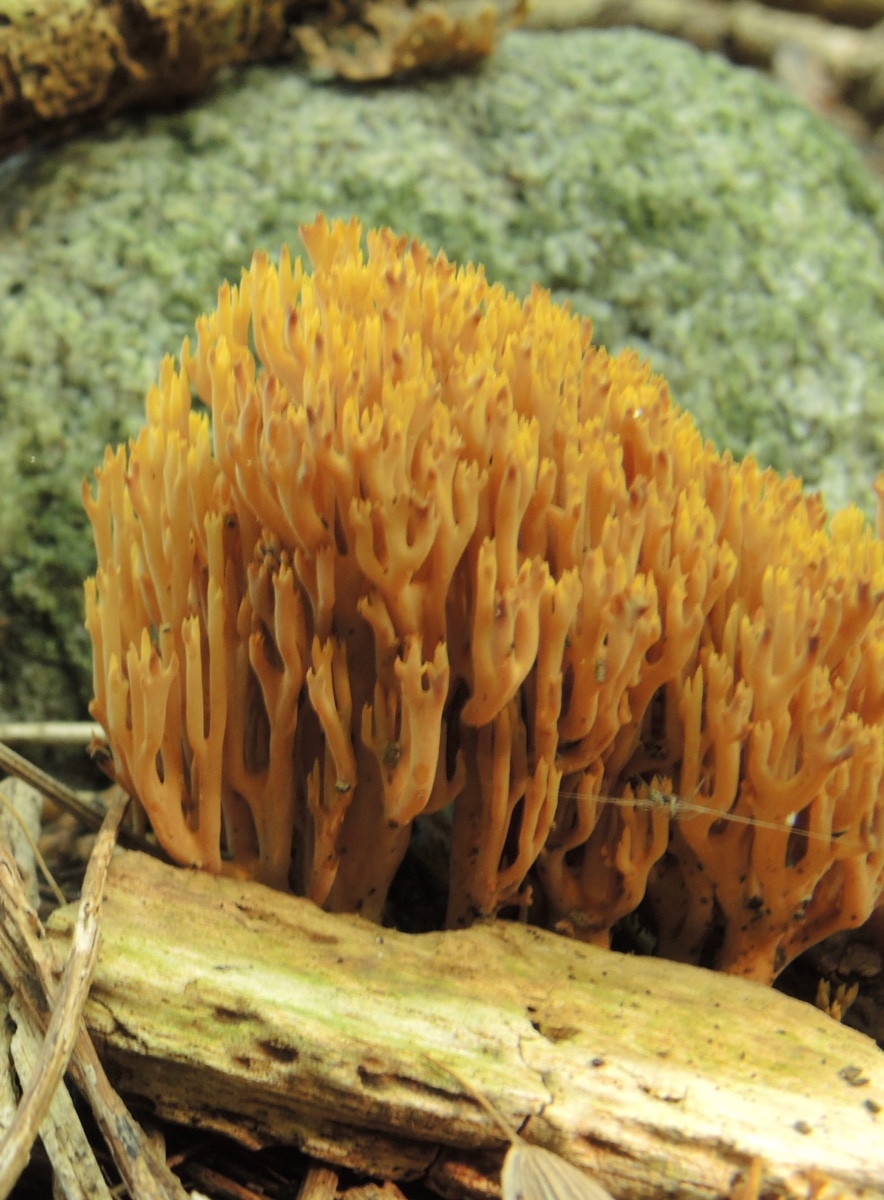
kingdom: Fungi
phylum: Basidiomycota
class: Agaricomycetes
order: Gomphales
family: Gomphaceae
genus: Phaeoclavulina
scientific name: Phaeoclavulina decurrens
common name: krat-koralsvamp
